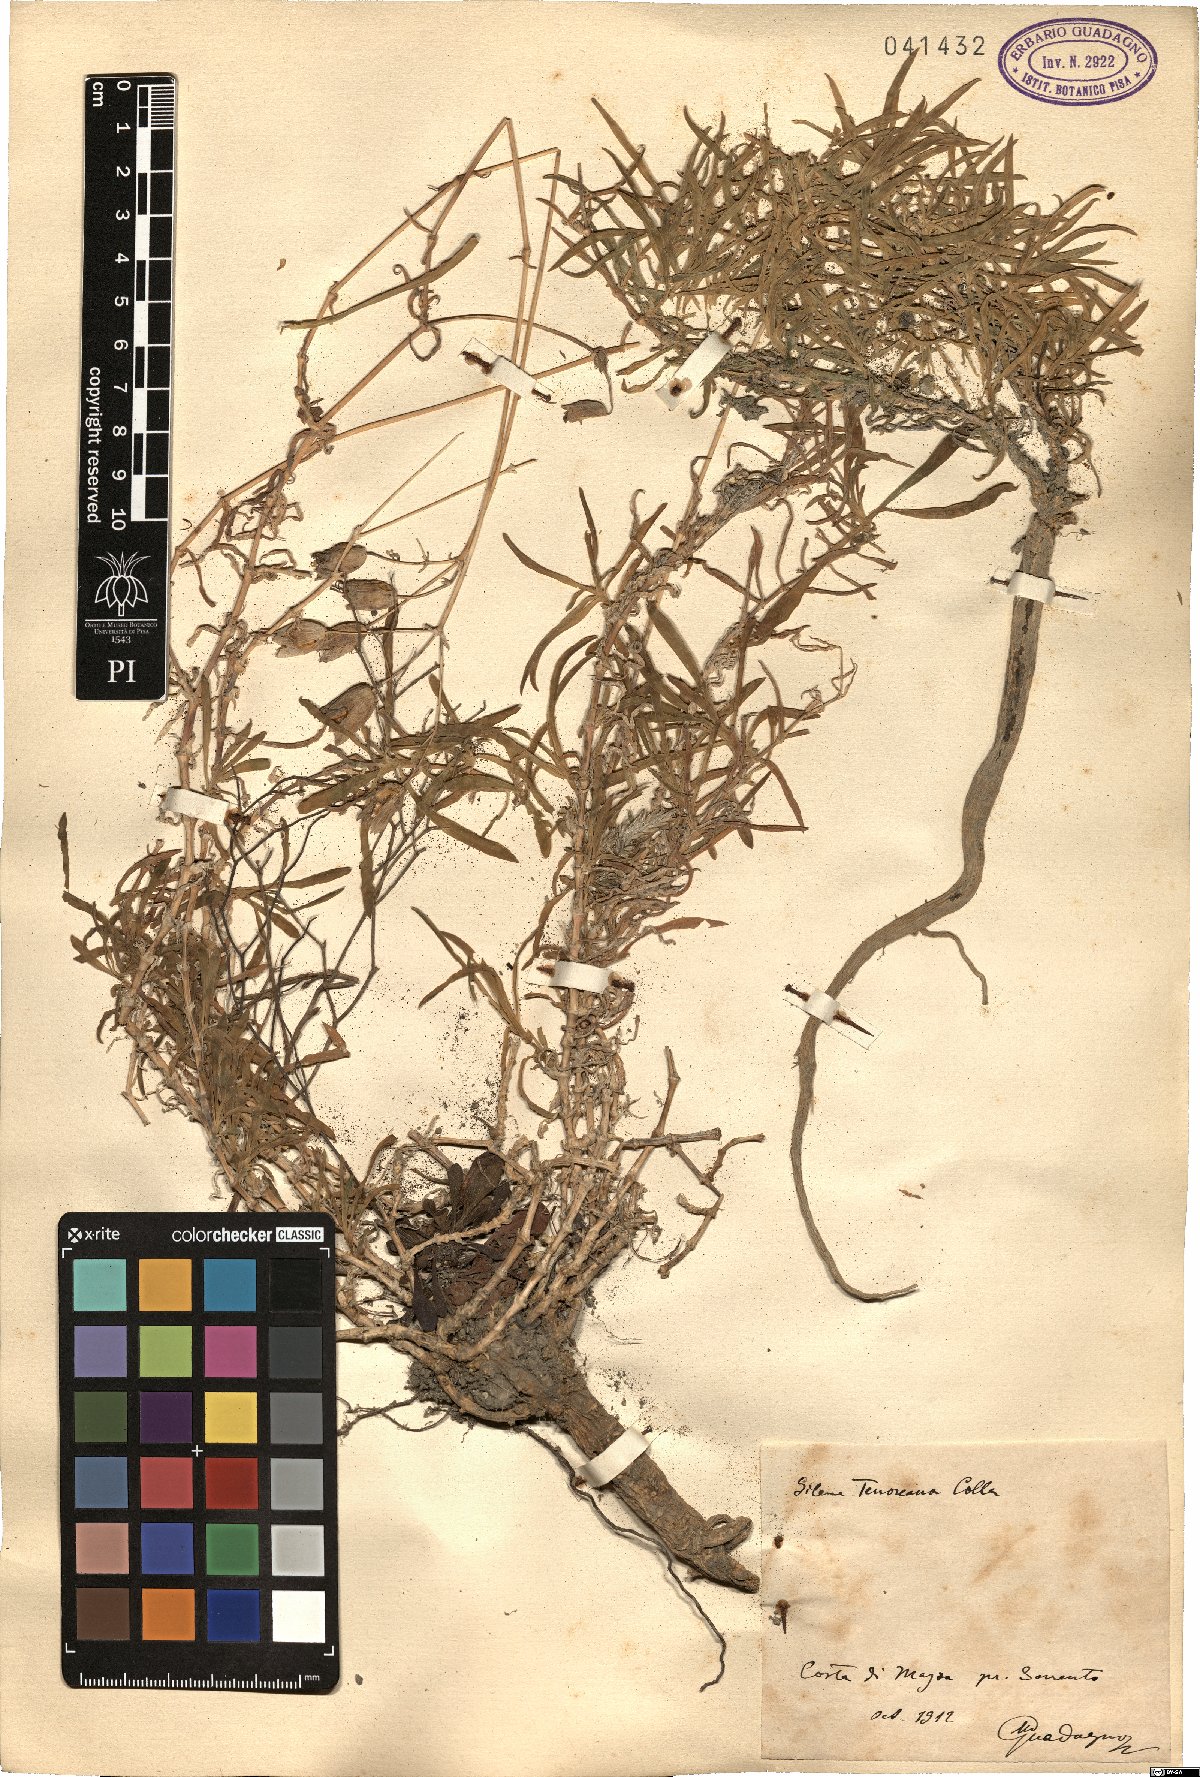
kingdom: Plantae
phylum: Tracheophyta
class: Magnoliopsida
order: Caryophyllales
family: Caryophyllaceae
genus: Silene
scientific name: Silene vulgaris
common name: Bladder campion
